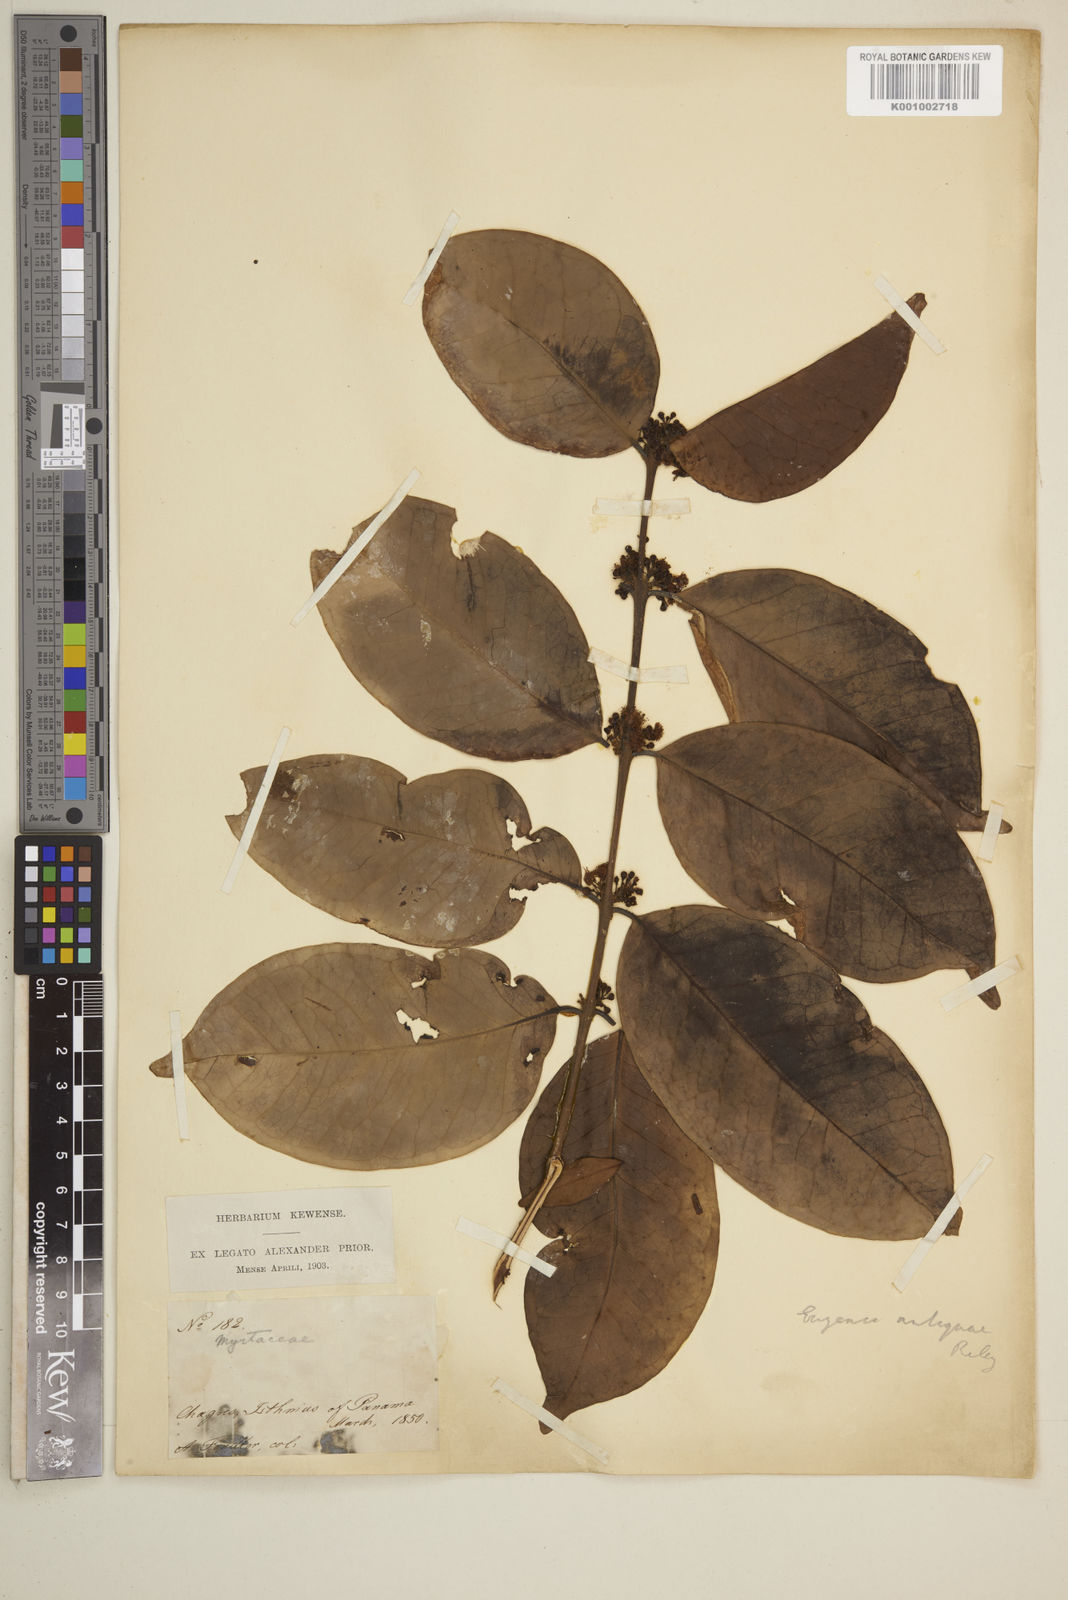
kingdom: Plantae
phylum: Tracheophyta
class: Magnoliopsida
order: Myrtales
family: Myrtaceae
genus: Eugenia
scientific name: Eugenia acapulcensis
